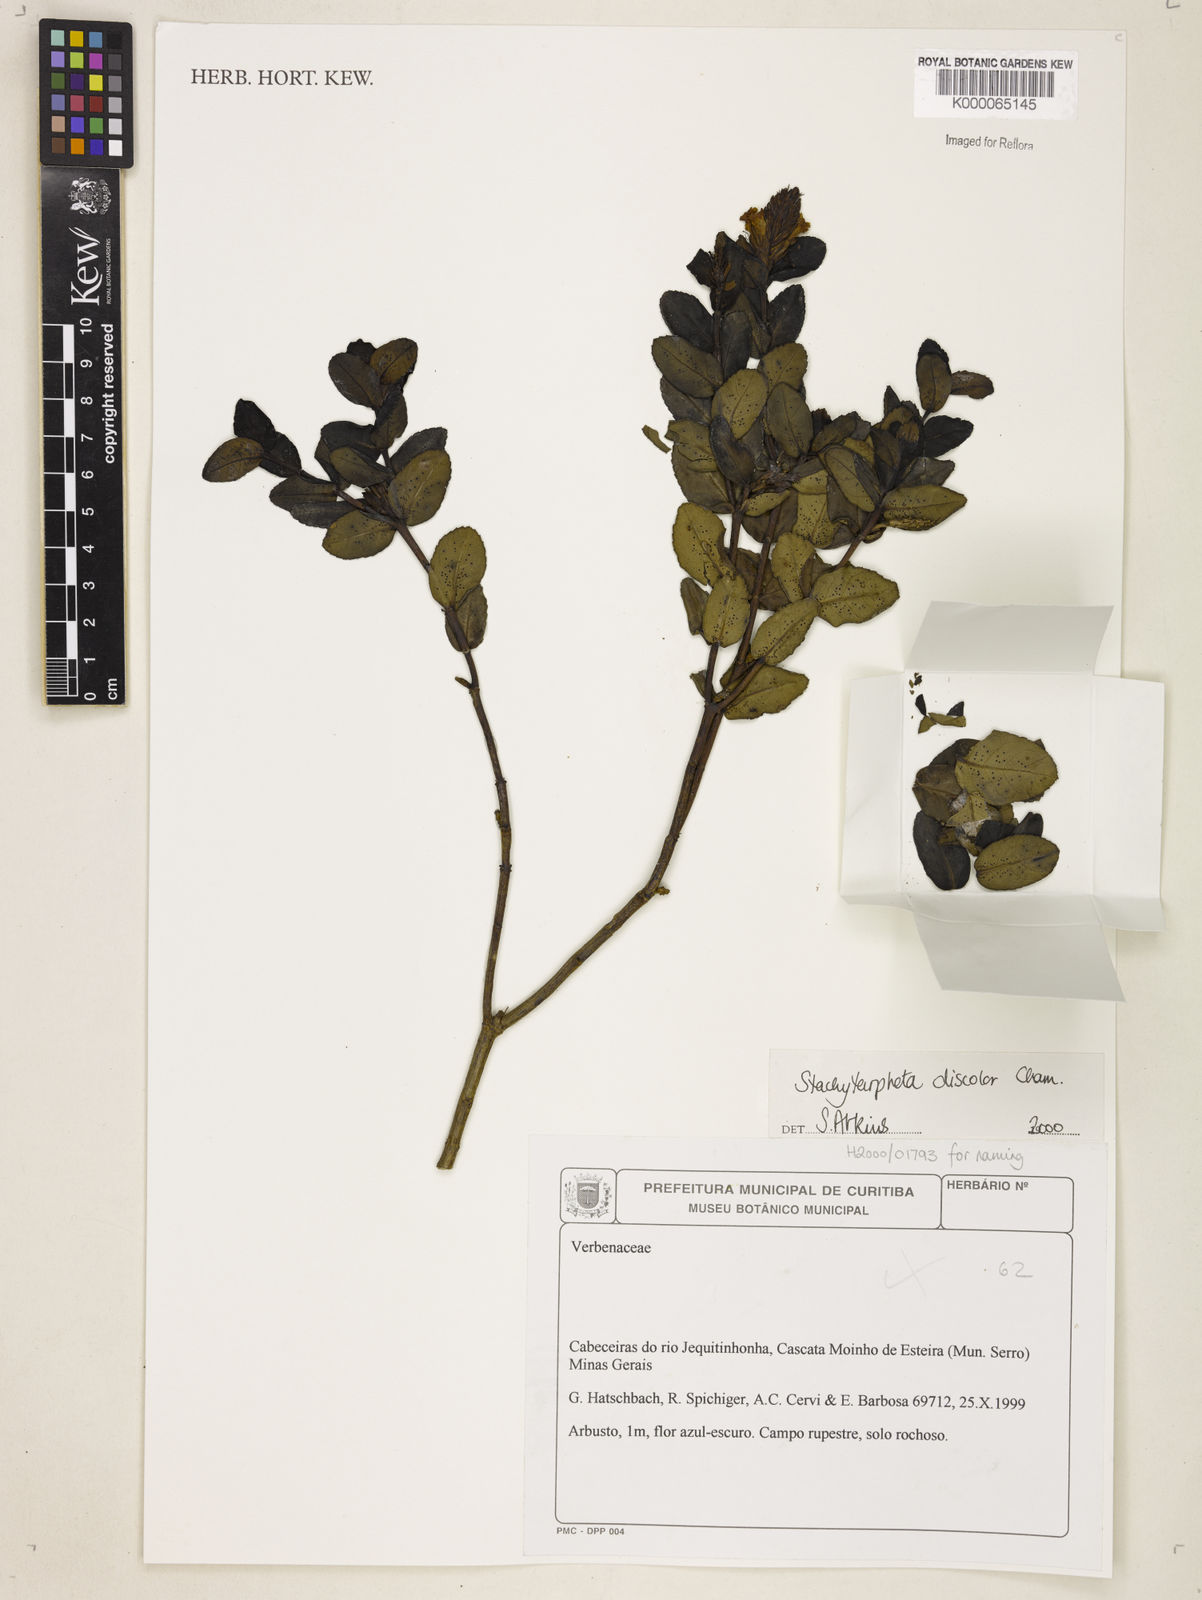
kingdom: Plantae
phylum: Tracheophyta
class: Magnoliopsida
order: Lamiales
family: Verbenaceae
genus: Stachytarpheta
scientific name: Stachytarpheta discolor
